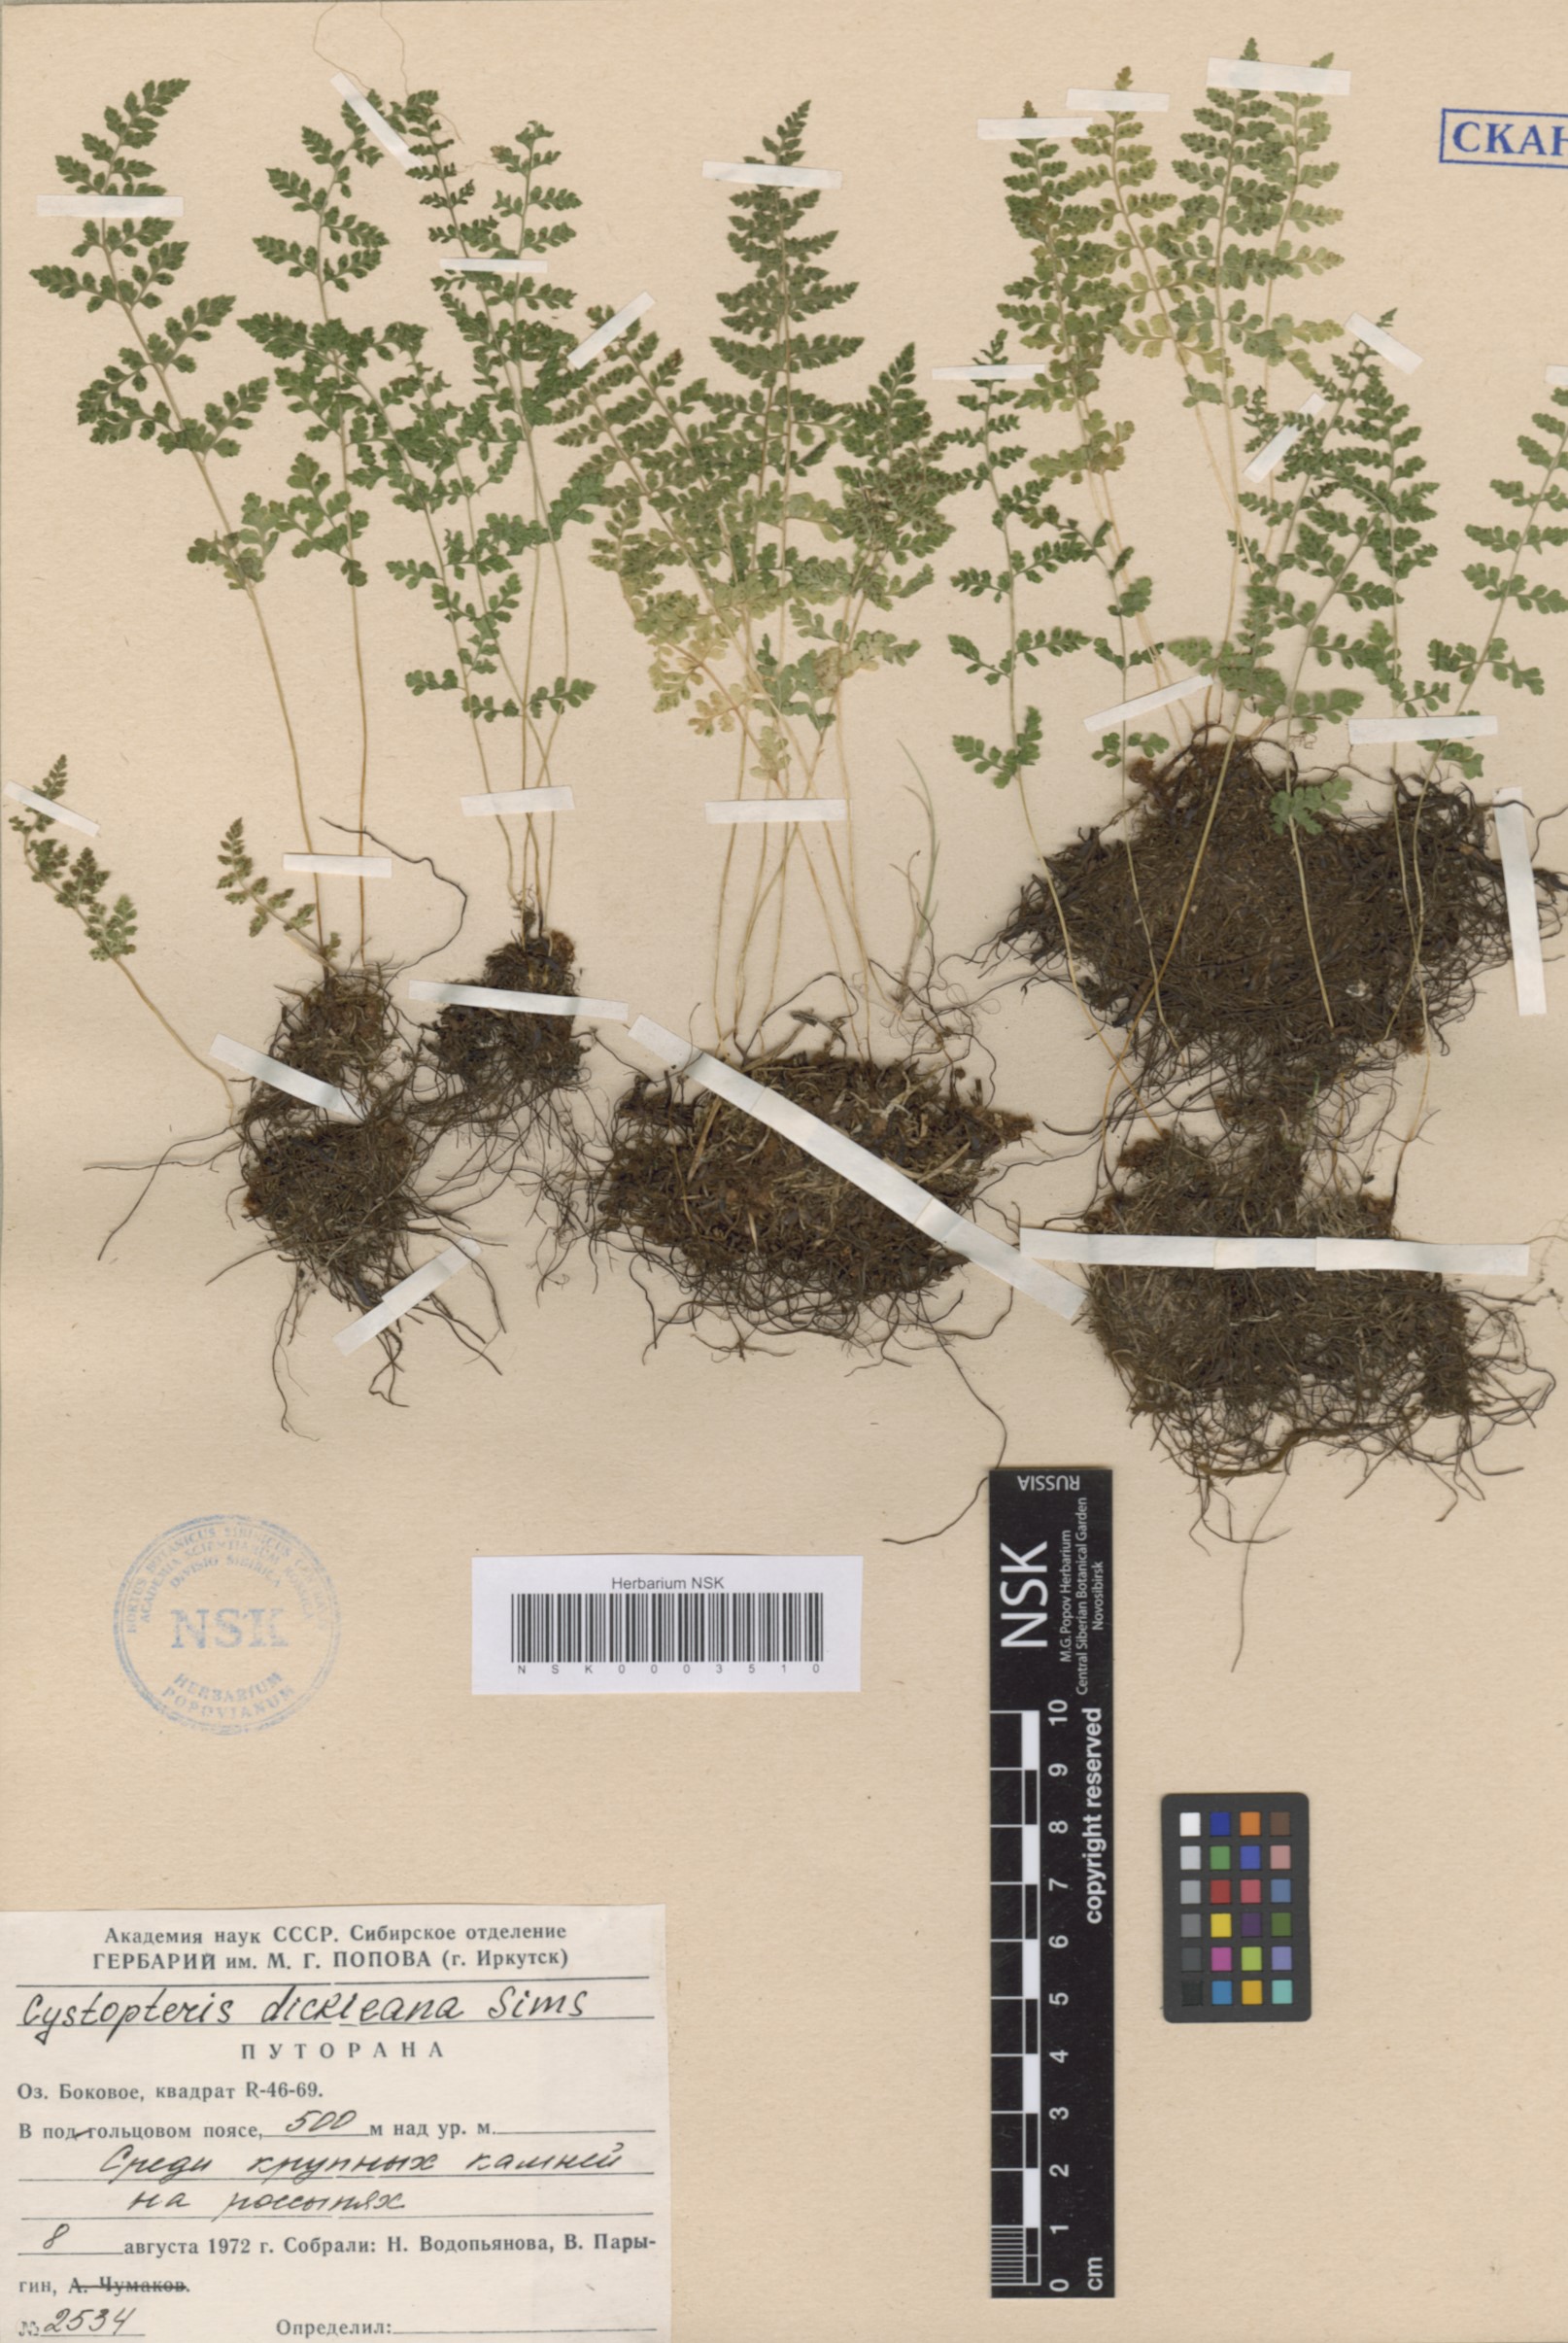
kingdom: Plantae
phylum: Tracheophyta
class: Polypodiopsida
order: Polypodiales
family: Cystopteridaceae
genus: Cystopteris
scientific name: Cystopteris dickieana
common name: Dickie's bladder-fern
